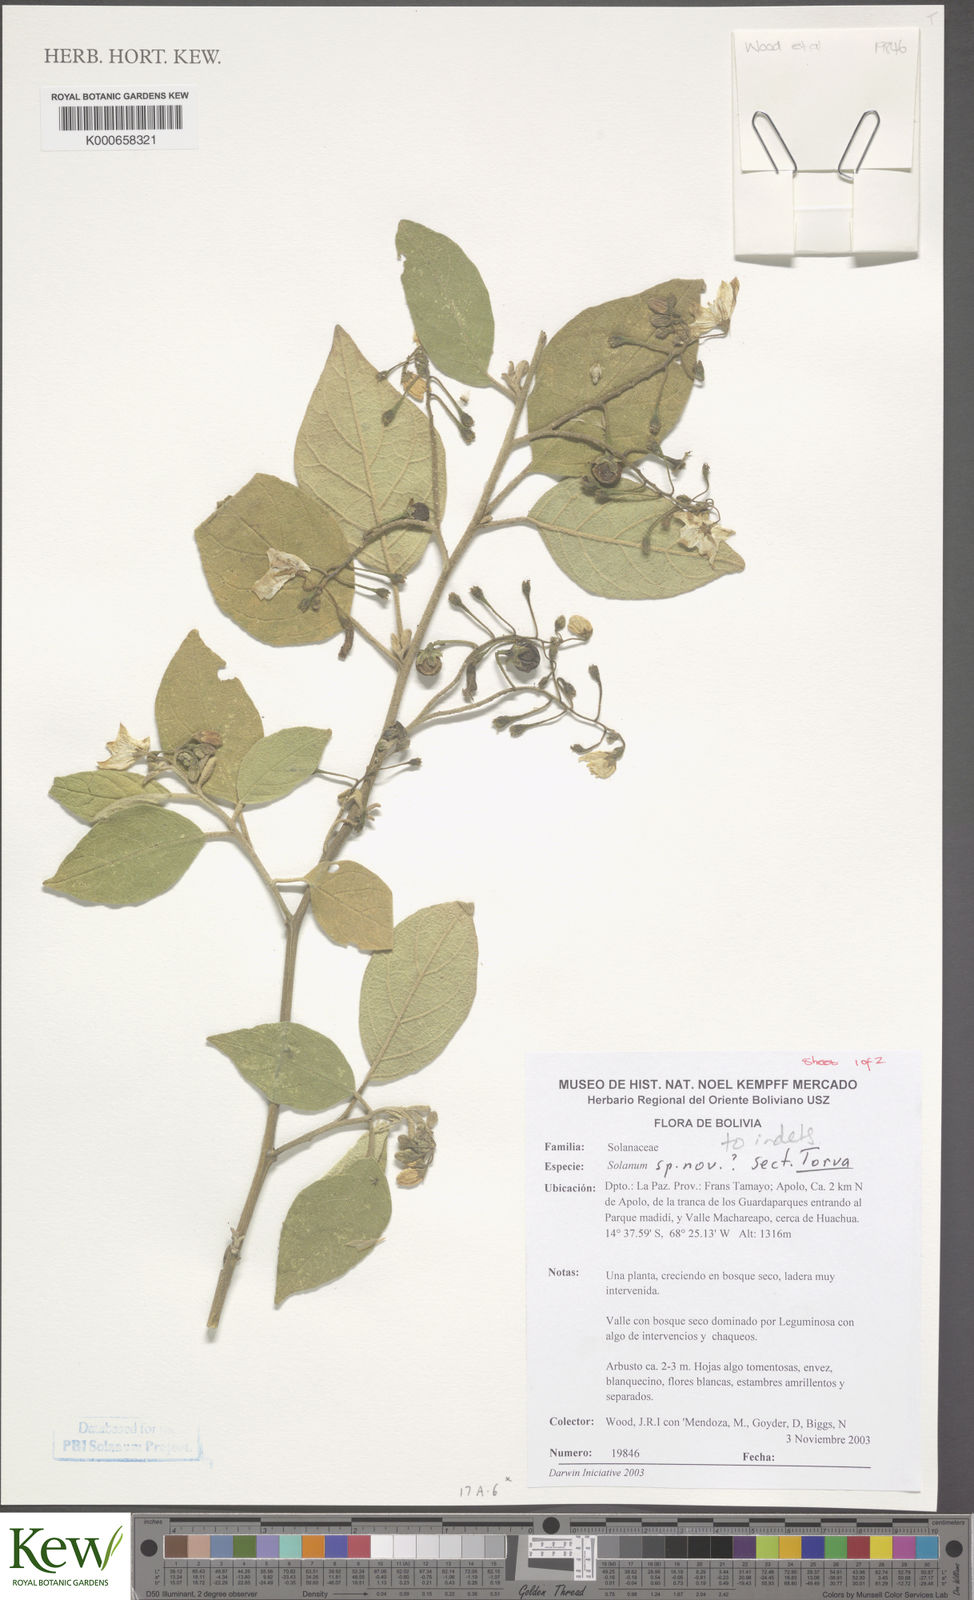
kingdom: Plantae
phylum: Tracheophyta
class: Magnoliopsida
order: Solanales
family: Solanaceae
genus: Solanum
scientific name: Solanum
